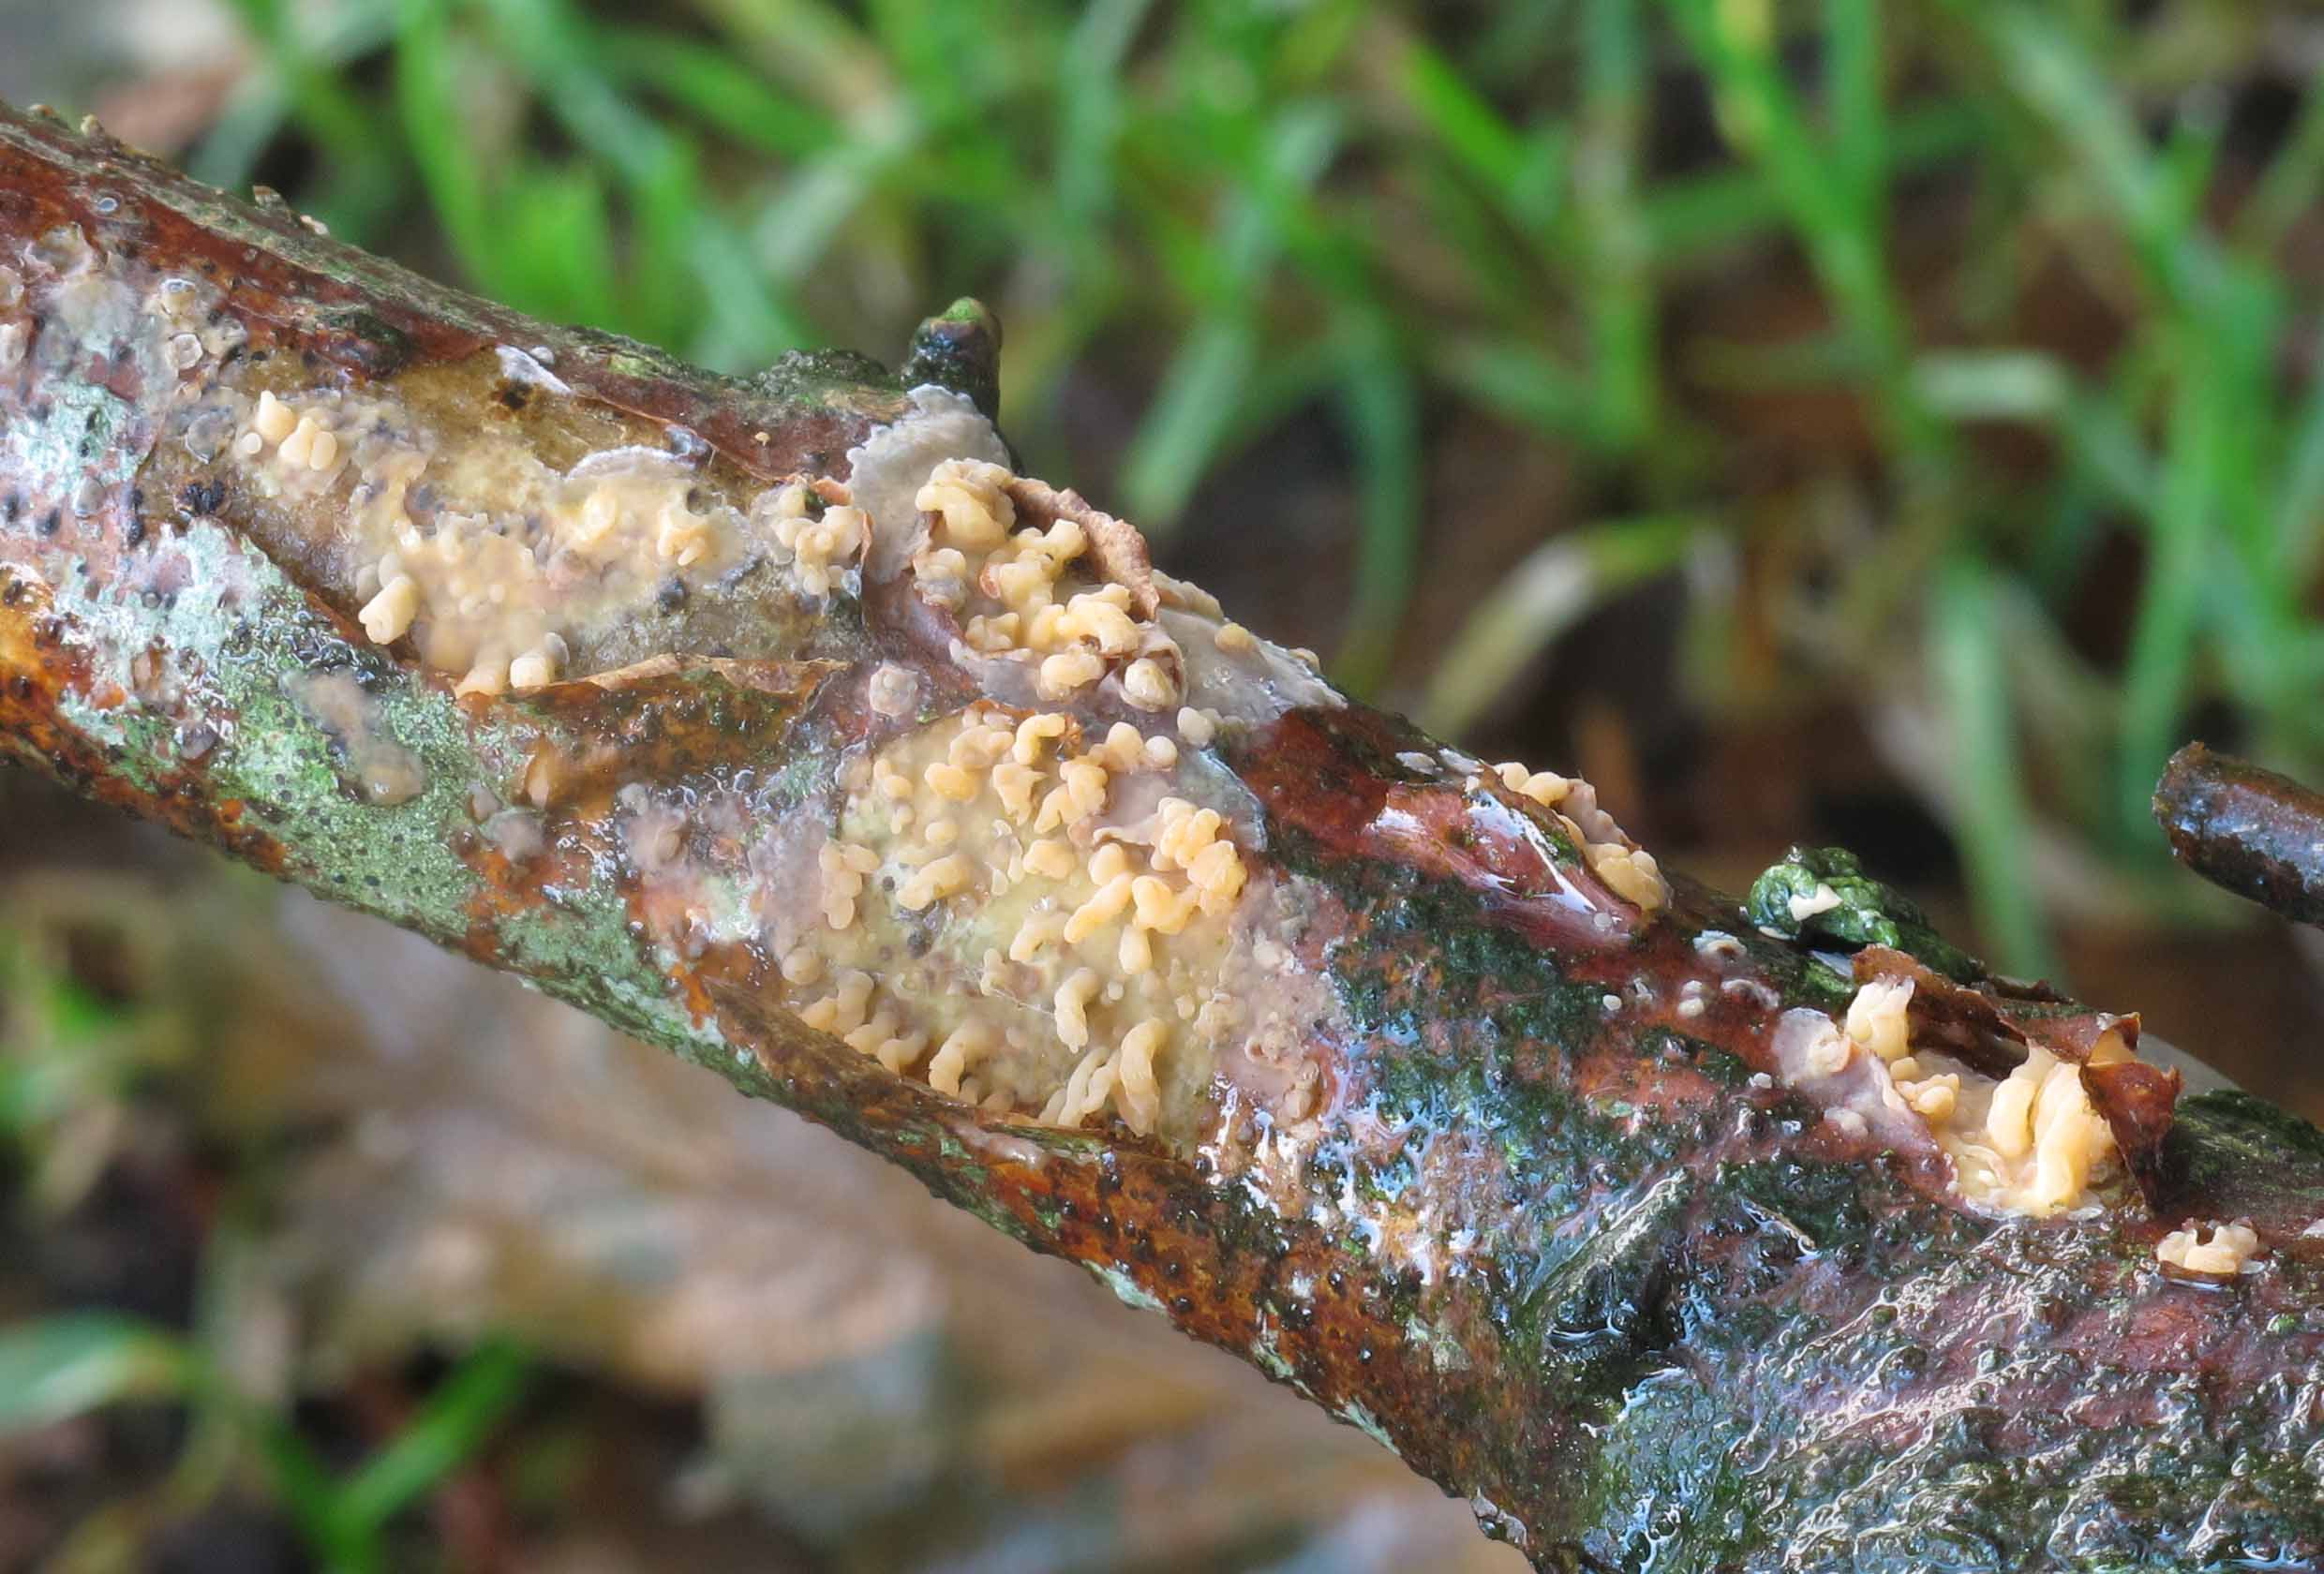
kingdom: Fungi
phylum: Basidiomycota
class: Agaricomycetes
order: Russulales
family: Peniophoraceae
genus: Peniophora
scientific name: Peniophora laeta
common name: tandet voksskind
